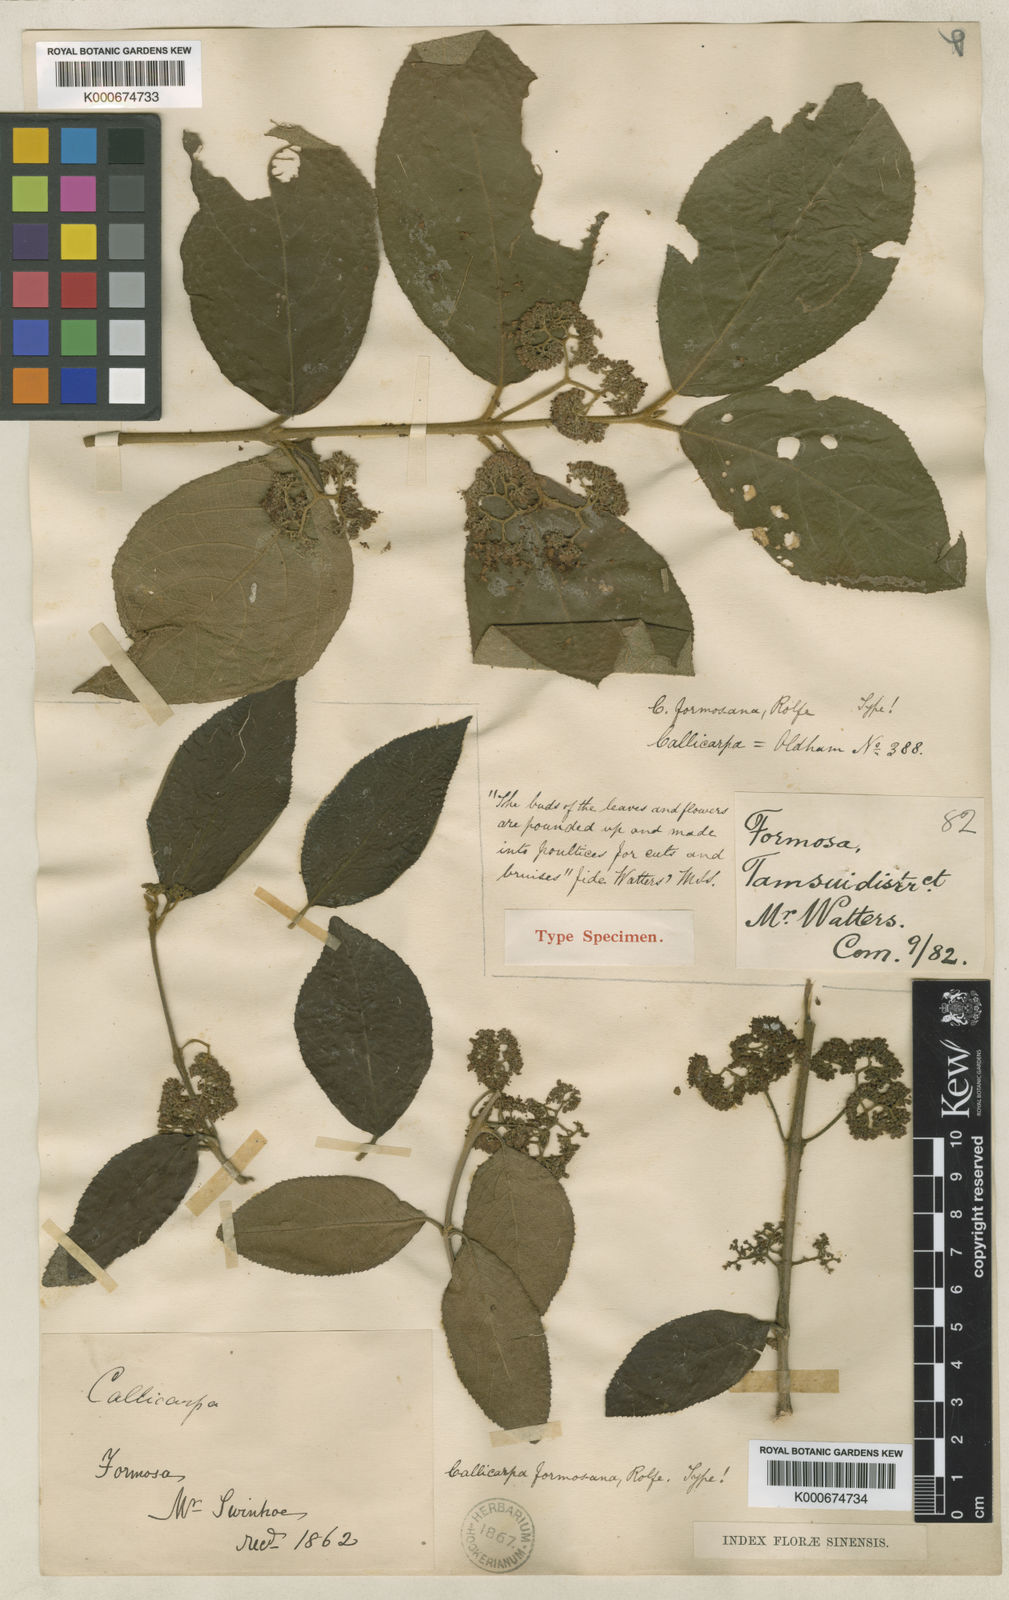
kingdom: Plantae
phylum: Tracheophyta
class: Magnoliopsida
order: Lamiales
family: Lamiaceae
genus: Callicarpa
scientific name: Callicarpa pedunculata
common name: Velvetleaf
